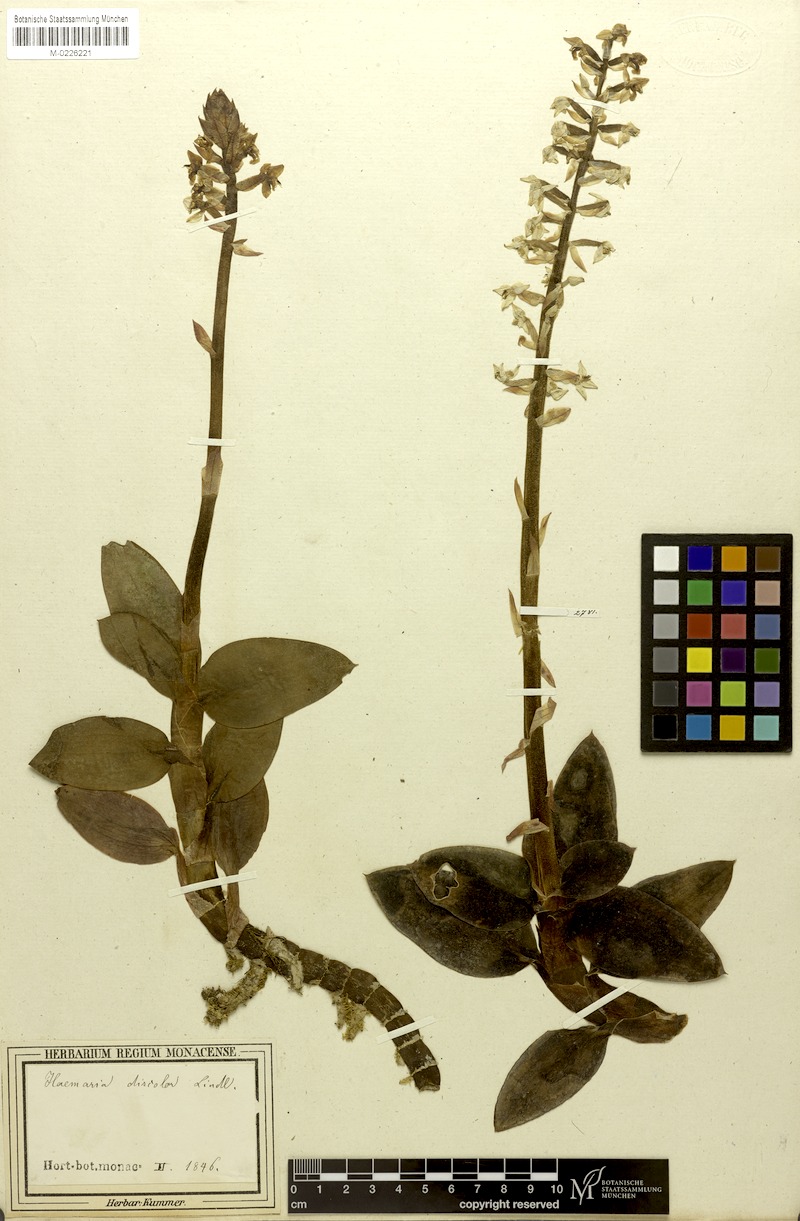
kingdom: Plantae
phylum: Tracheophyta
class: Liliopsida
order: Asparagales
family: Orchidaceae
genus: Ludisia
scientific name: Ludisia discolor
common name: Jewel orchid
